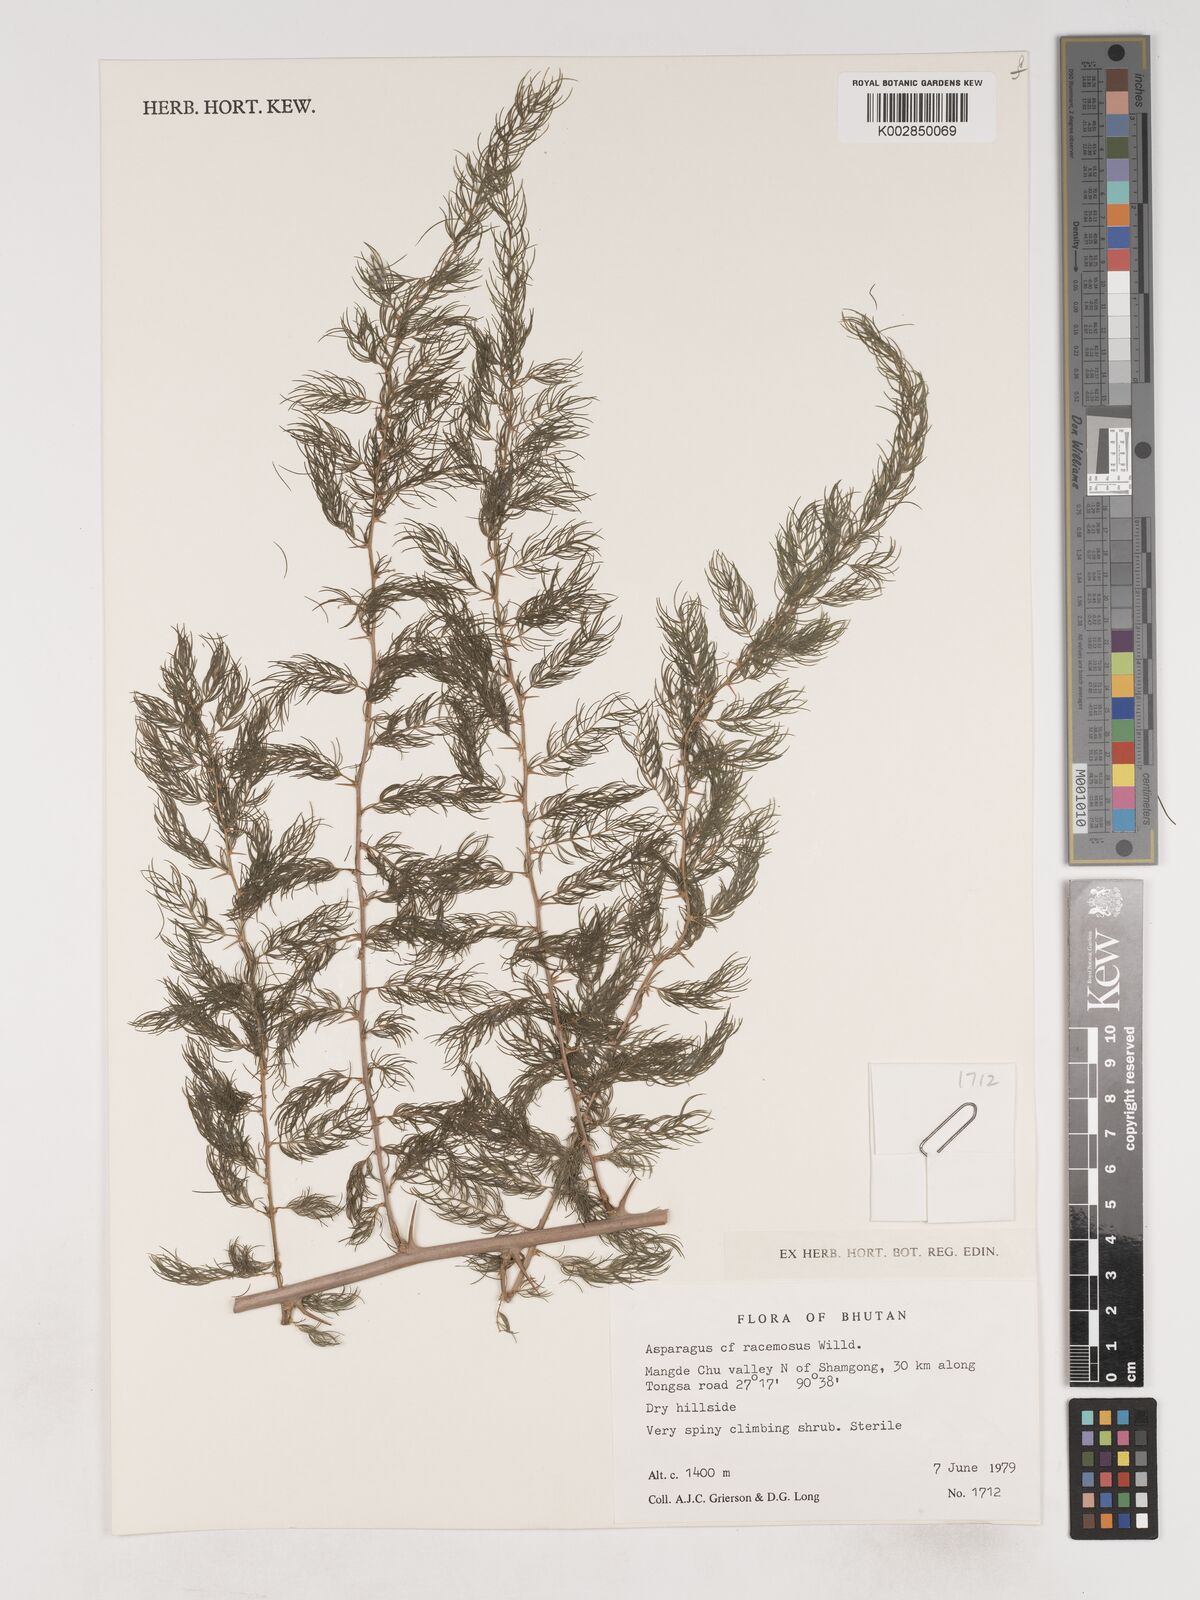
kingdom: Plantae
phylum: Tracheophyta
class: Liliopsida
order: Asparagales
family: Asparagaceae
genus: Asparagus
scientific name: Asparagus racemosus
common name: Asparagus-fern
